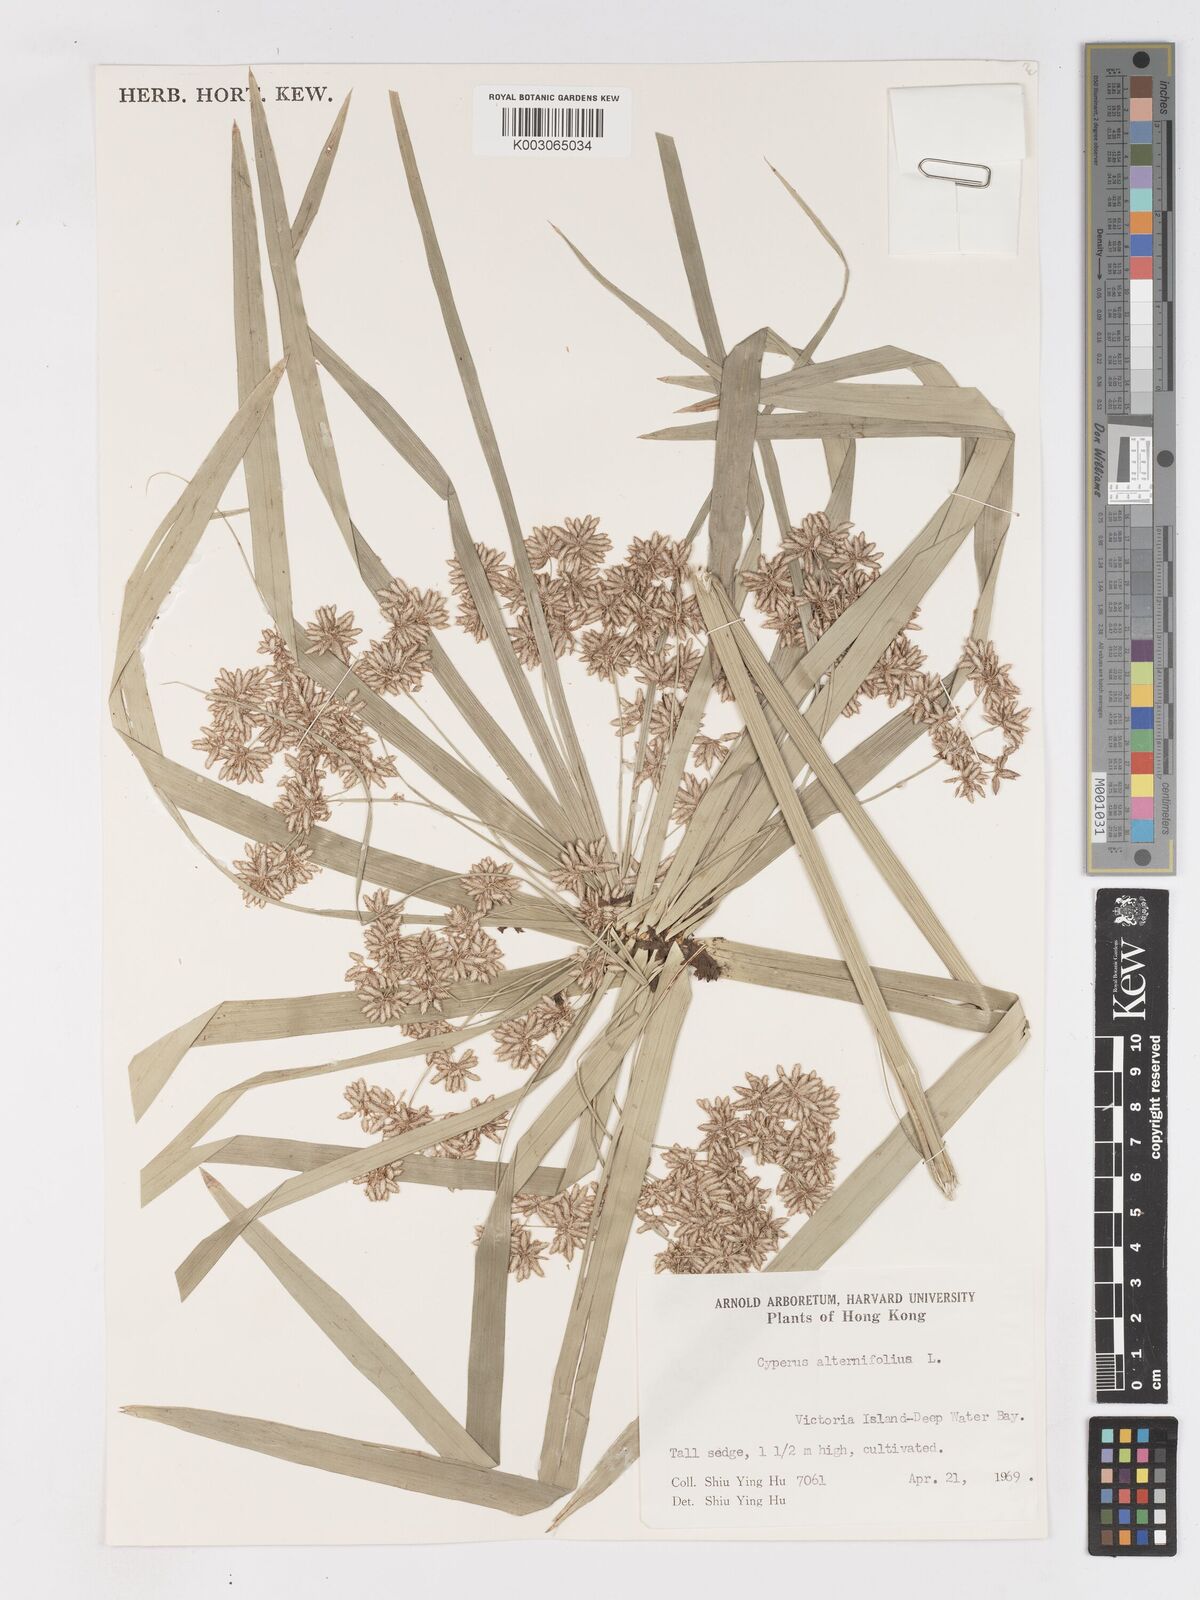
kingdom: Plantae
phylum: Tracheophyta
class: Liliopsida
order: Poales
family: Cyperaceae
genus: Cyperus
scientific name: Cyperus alternifolius
